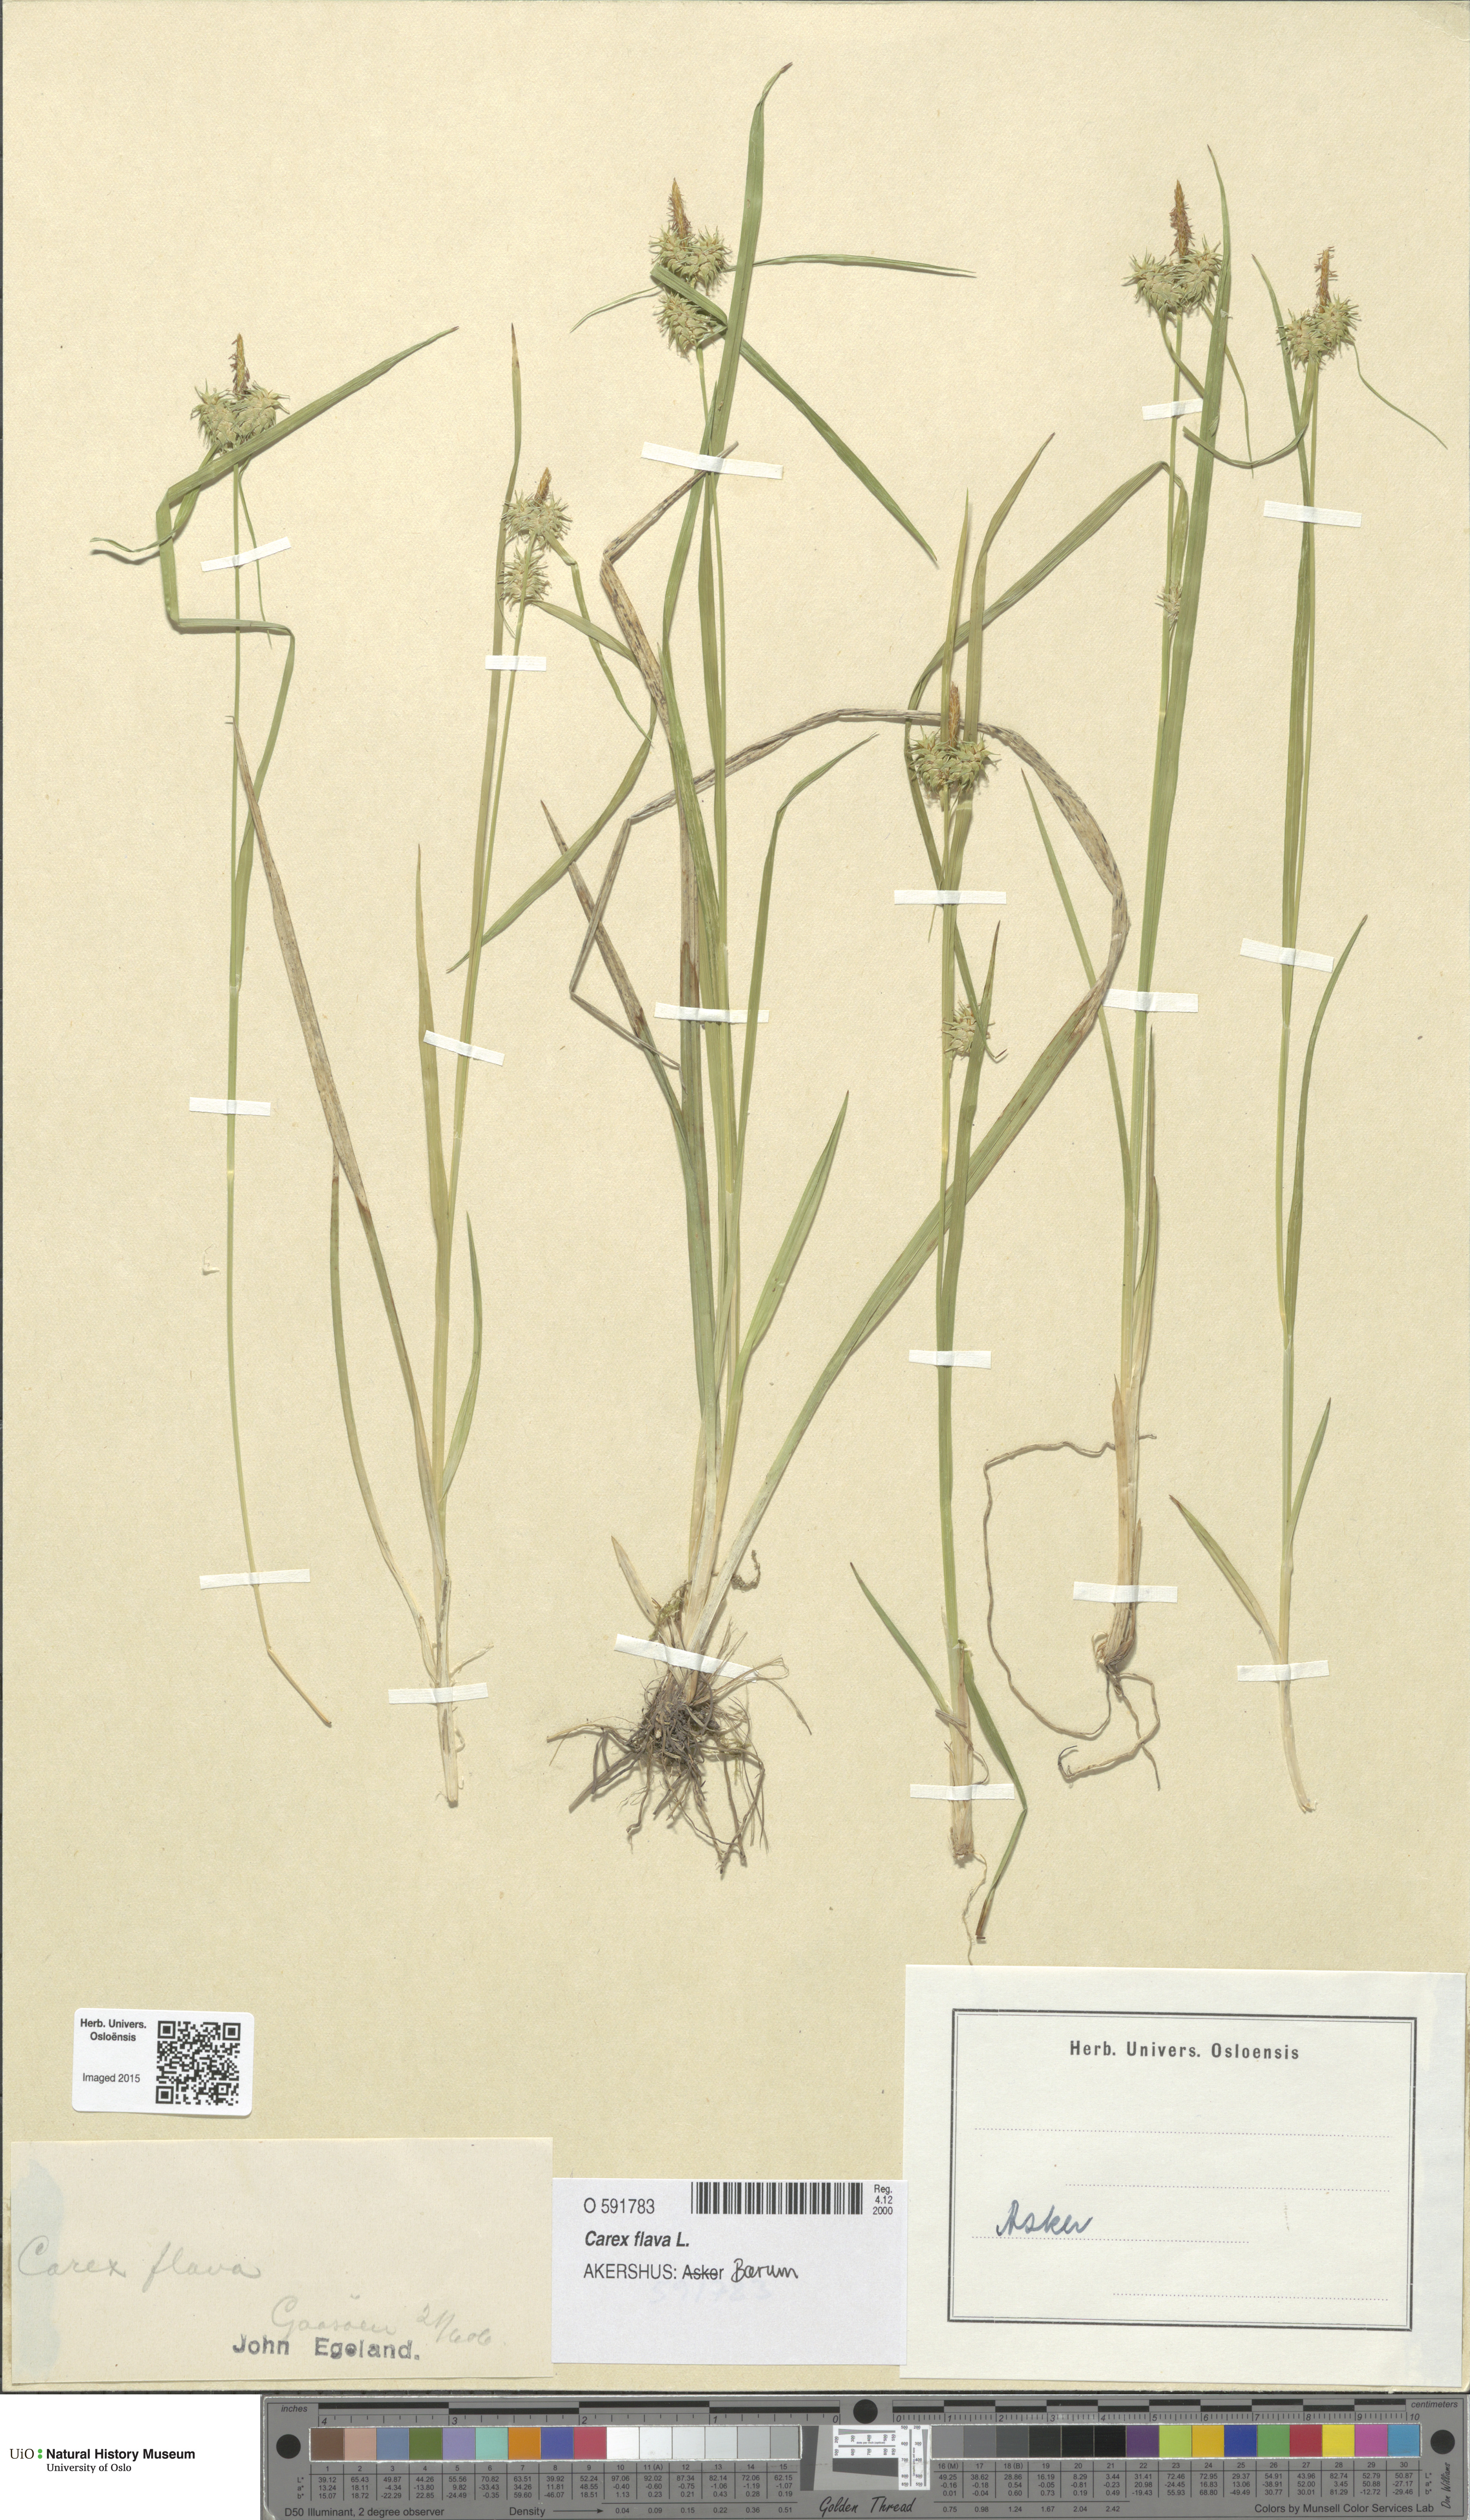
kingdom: Plantae
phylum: Tracheophyta
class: Liliopsida
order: Poales
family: Cyperaceae
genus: Carex
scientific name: Carex flava
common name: Large yellow-sedge
